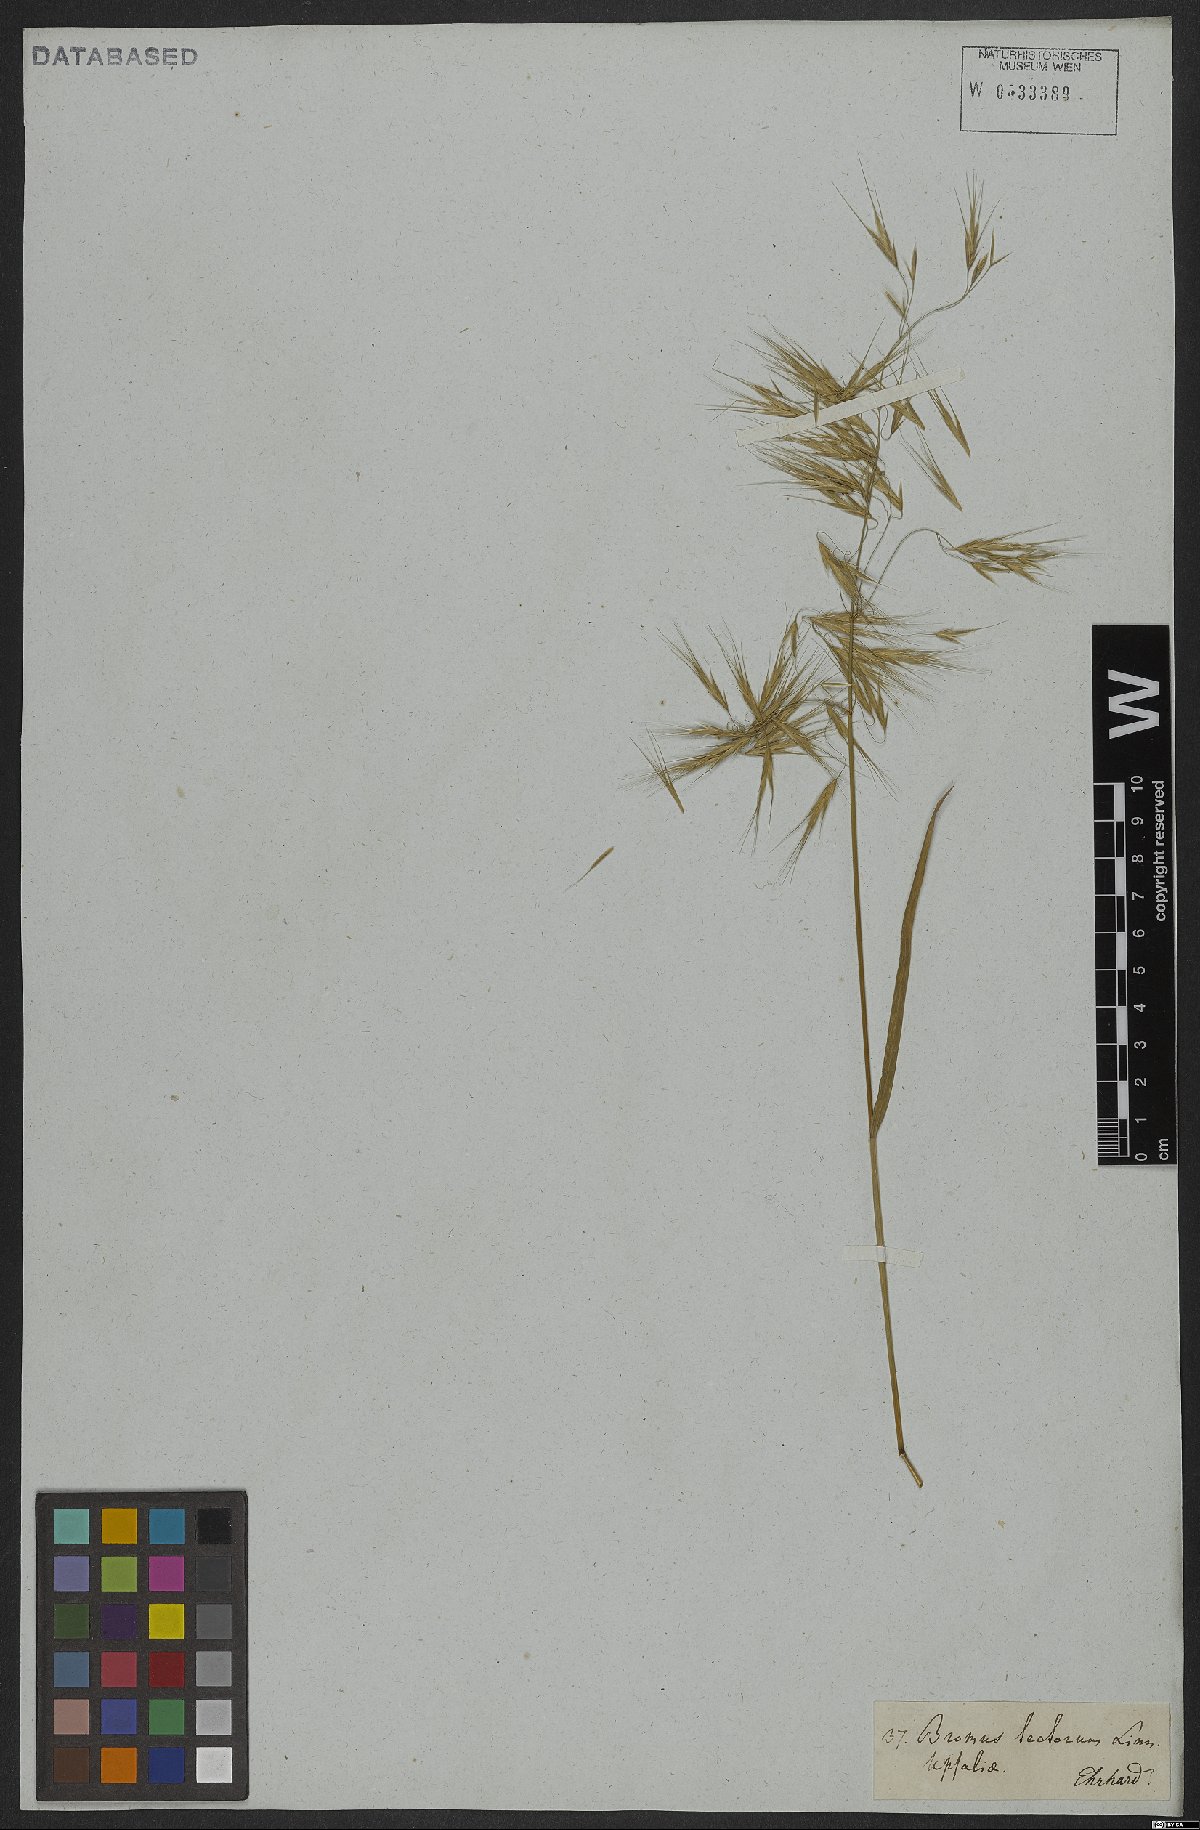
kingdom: Plantae
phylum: Tracheophyta
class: Liliopsida
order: Poales
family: Poaceae
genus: Bromus
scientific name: Bromus tectorum
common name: Cheatgrass
